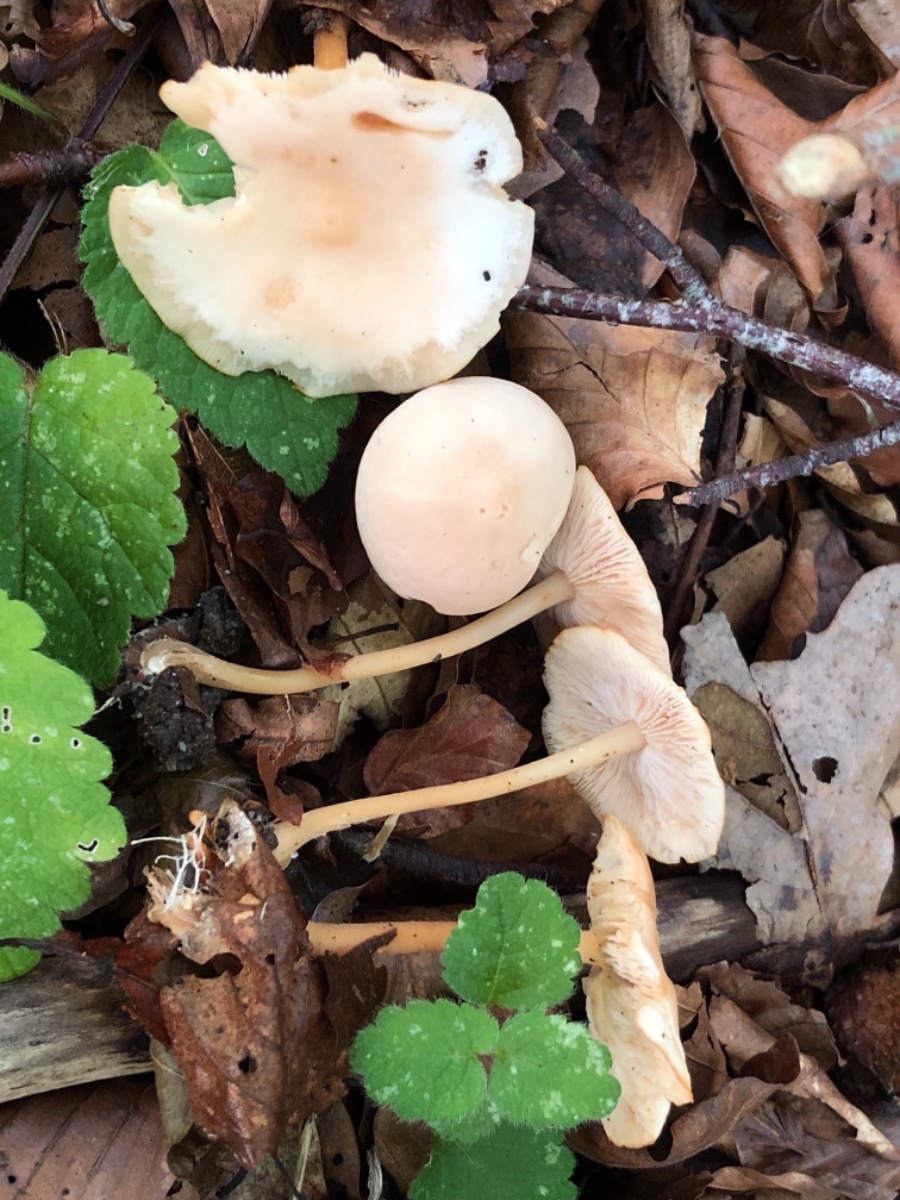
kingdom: Fungi
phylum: Basidiomycota
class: Agaricomycetes
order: Agaricales
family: Omphalotaceae
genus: Gymnopus
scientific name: Gymnopus dryophilus
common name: løv-fladhat
